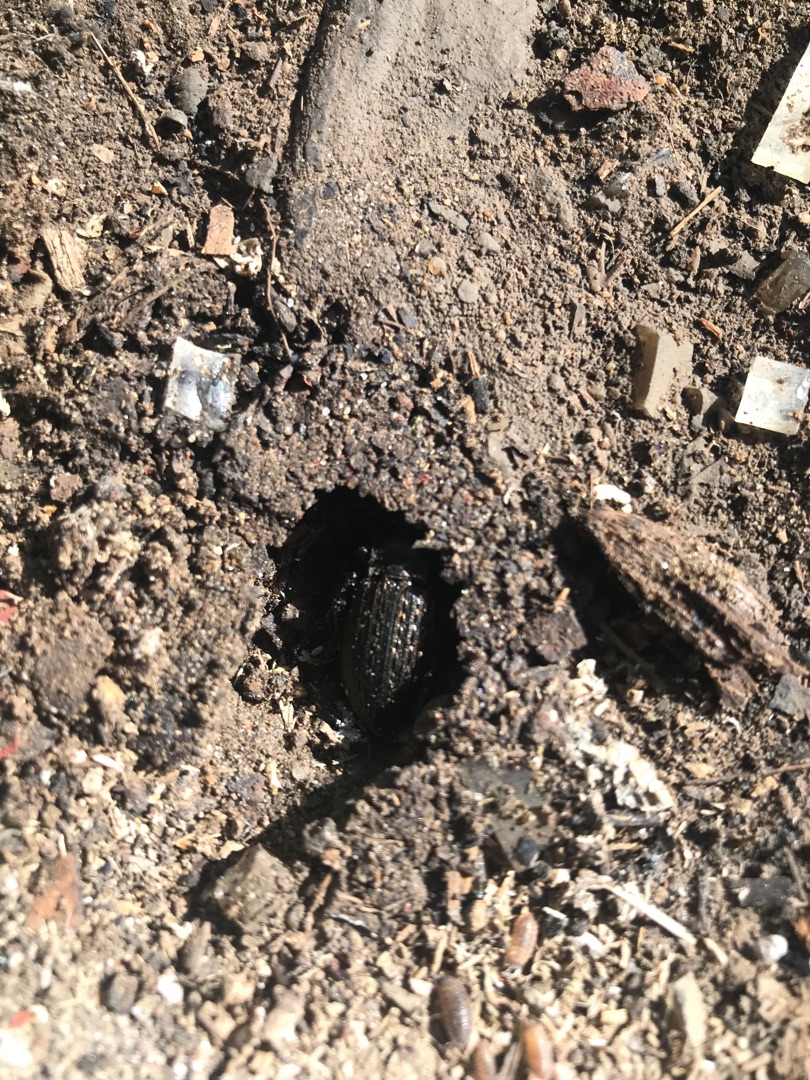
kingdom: Animalia
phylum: Arthropoda
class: Insecta
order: Coleoptera
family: Carabidae
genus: Carabus
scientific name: Carabus granulatus
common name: Kornet løber
